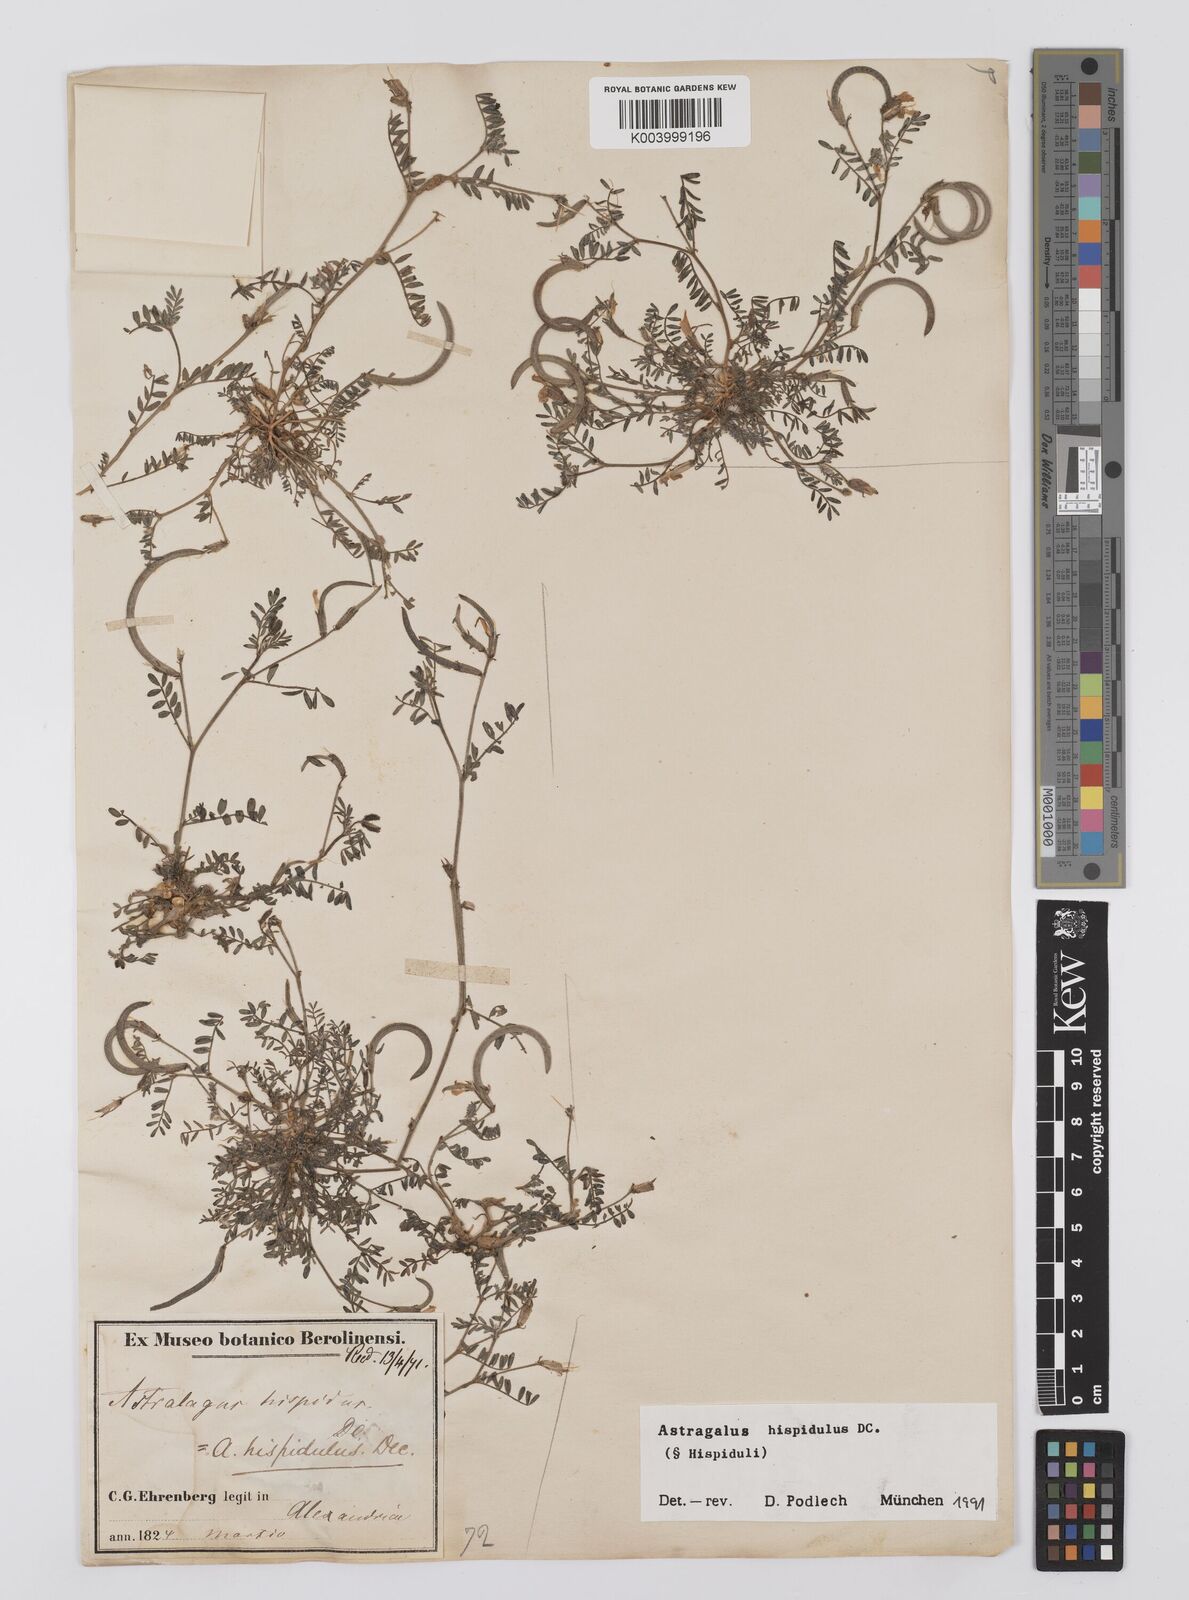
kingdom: Plantae
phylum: Tracheophyta
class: Magnoliopsida
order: Fabales
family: Fabaceae
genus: Astragalus
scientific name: Astragalus hispidulus
